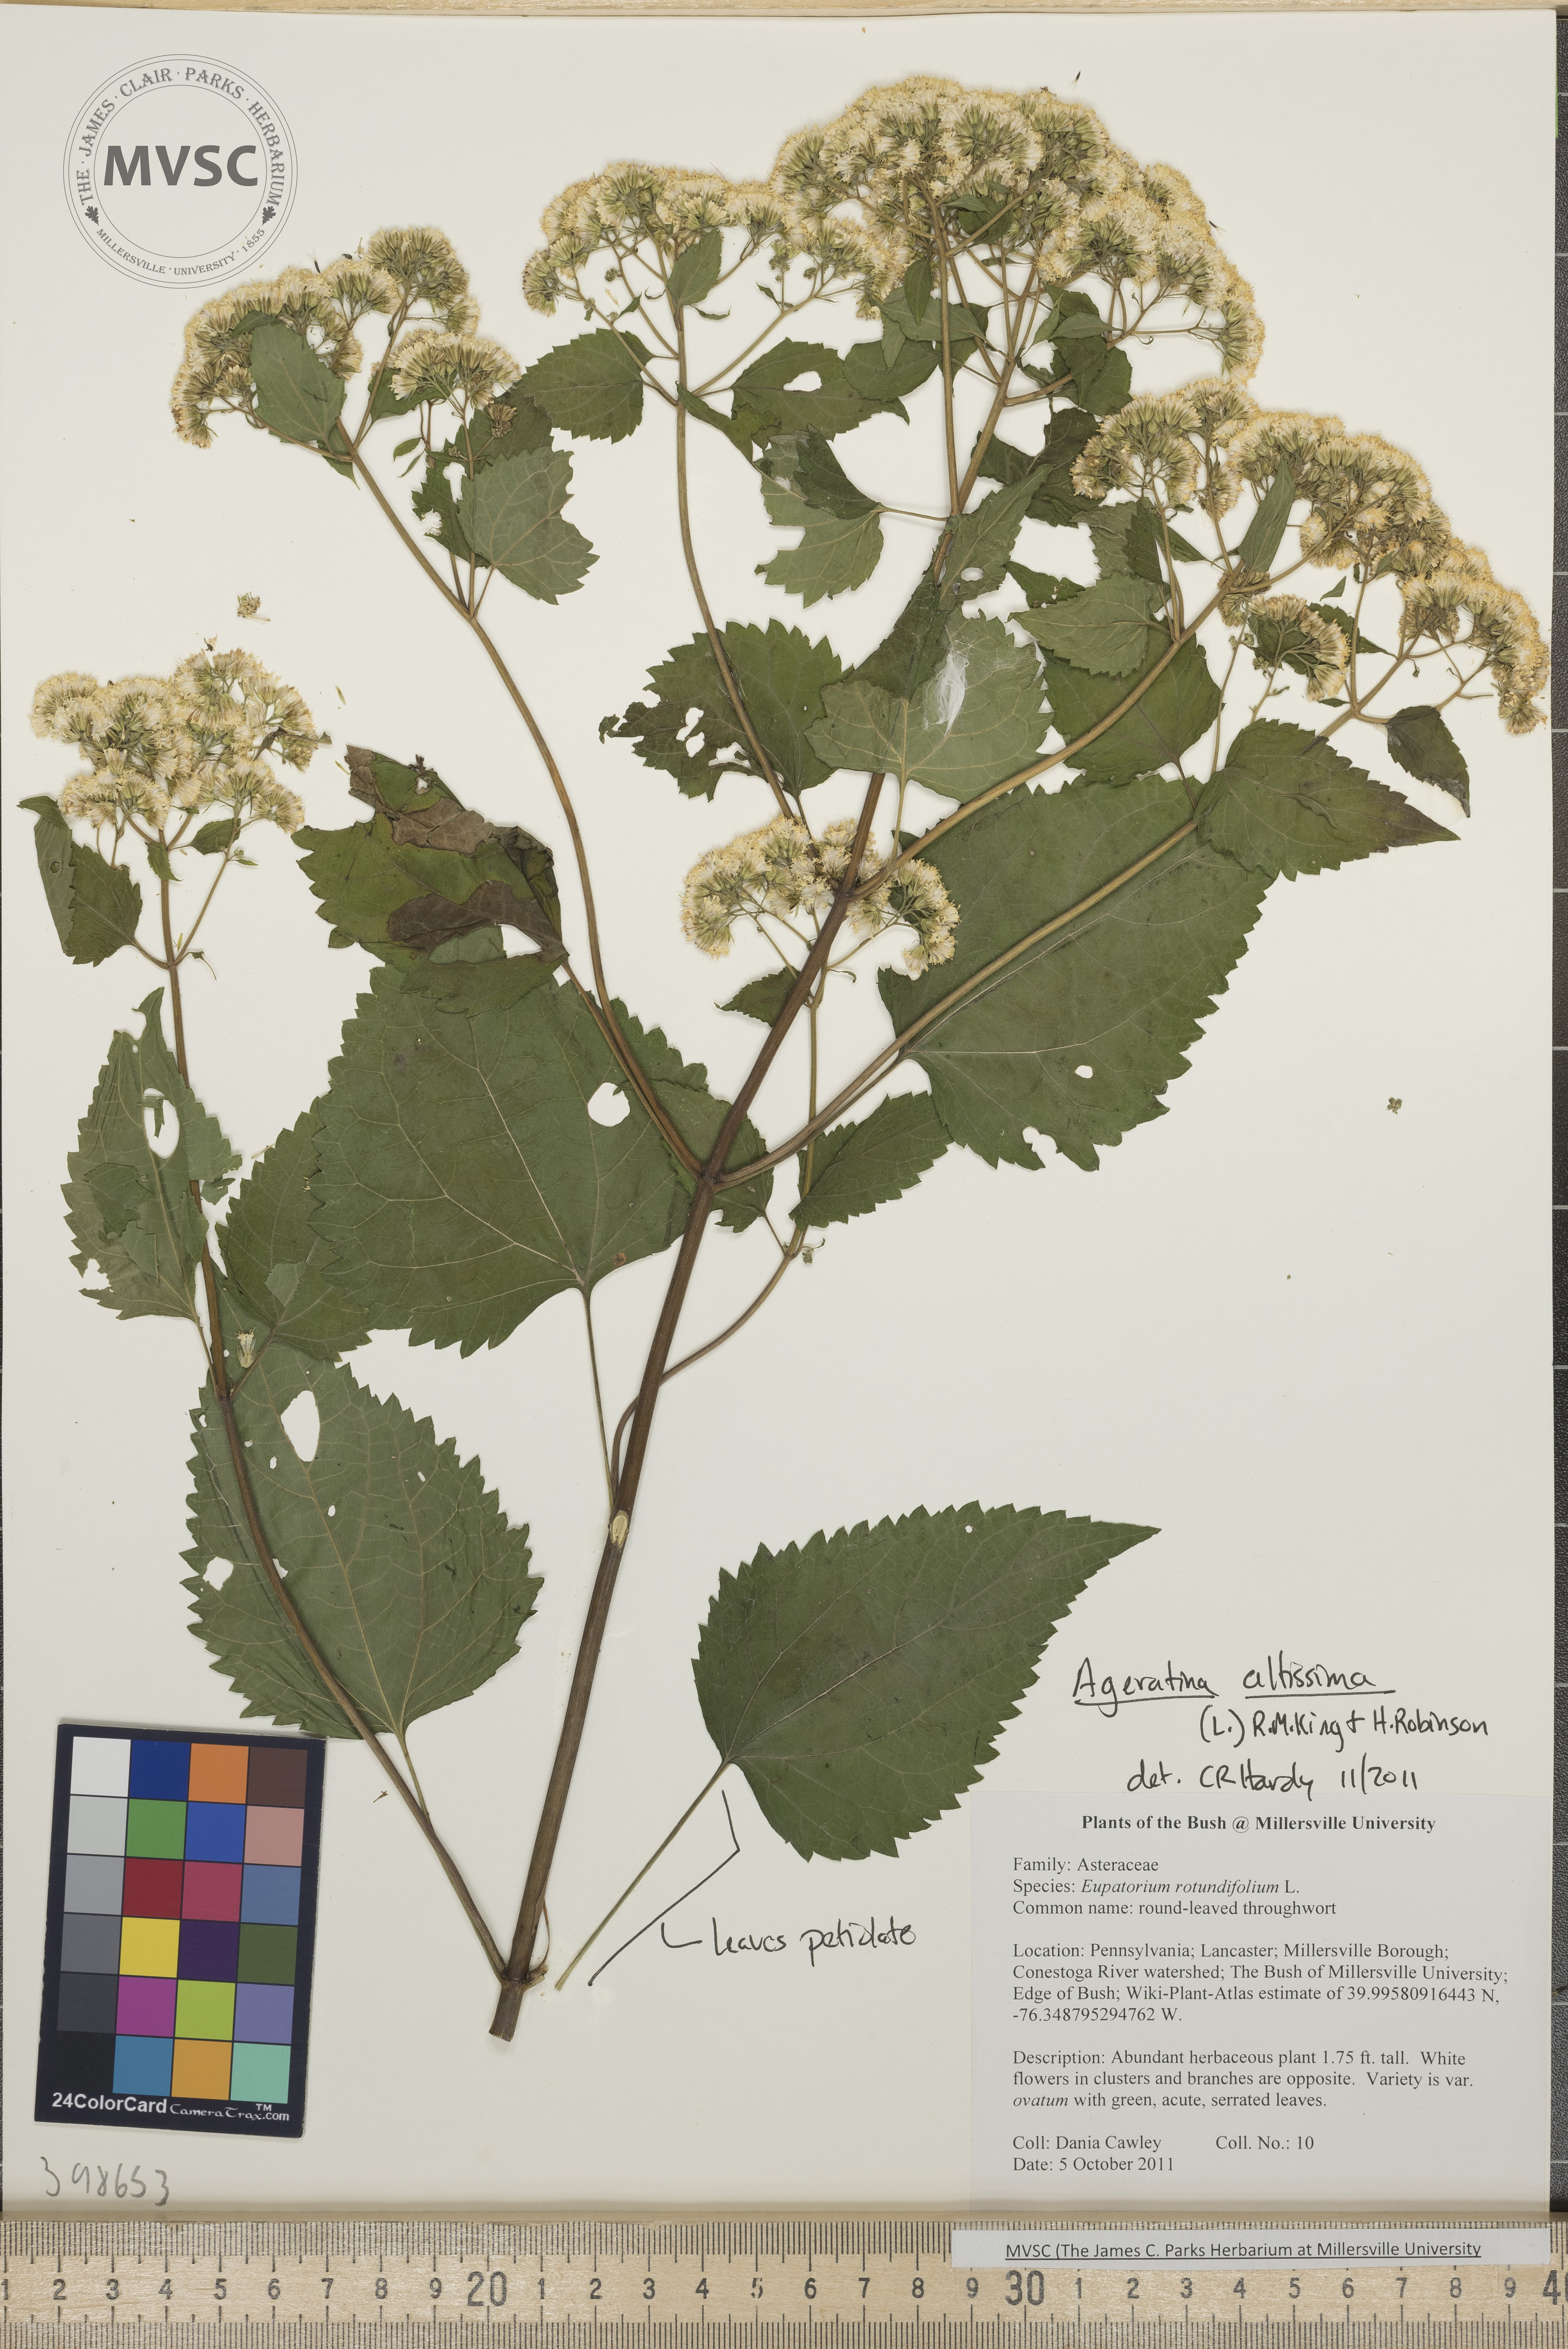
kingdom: Plantae
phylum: Tracheophyta
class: Magnoliopsida
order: Asterales
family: Asteraceae
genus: Ageratina
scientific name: Ageratina altissima
